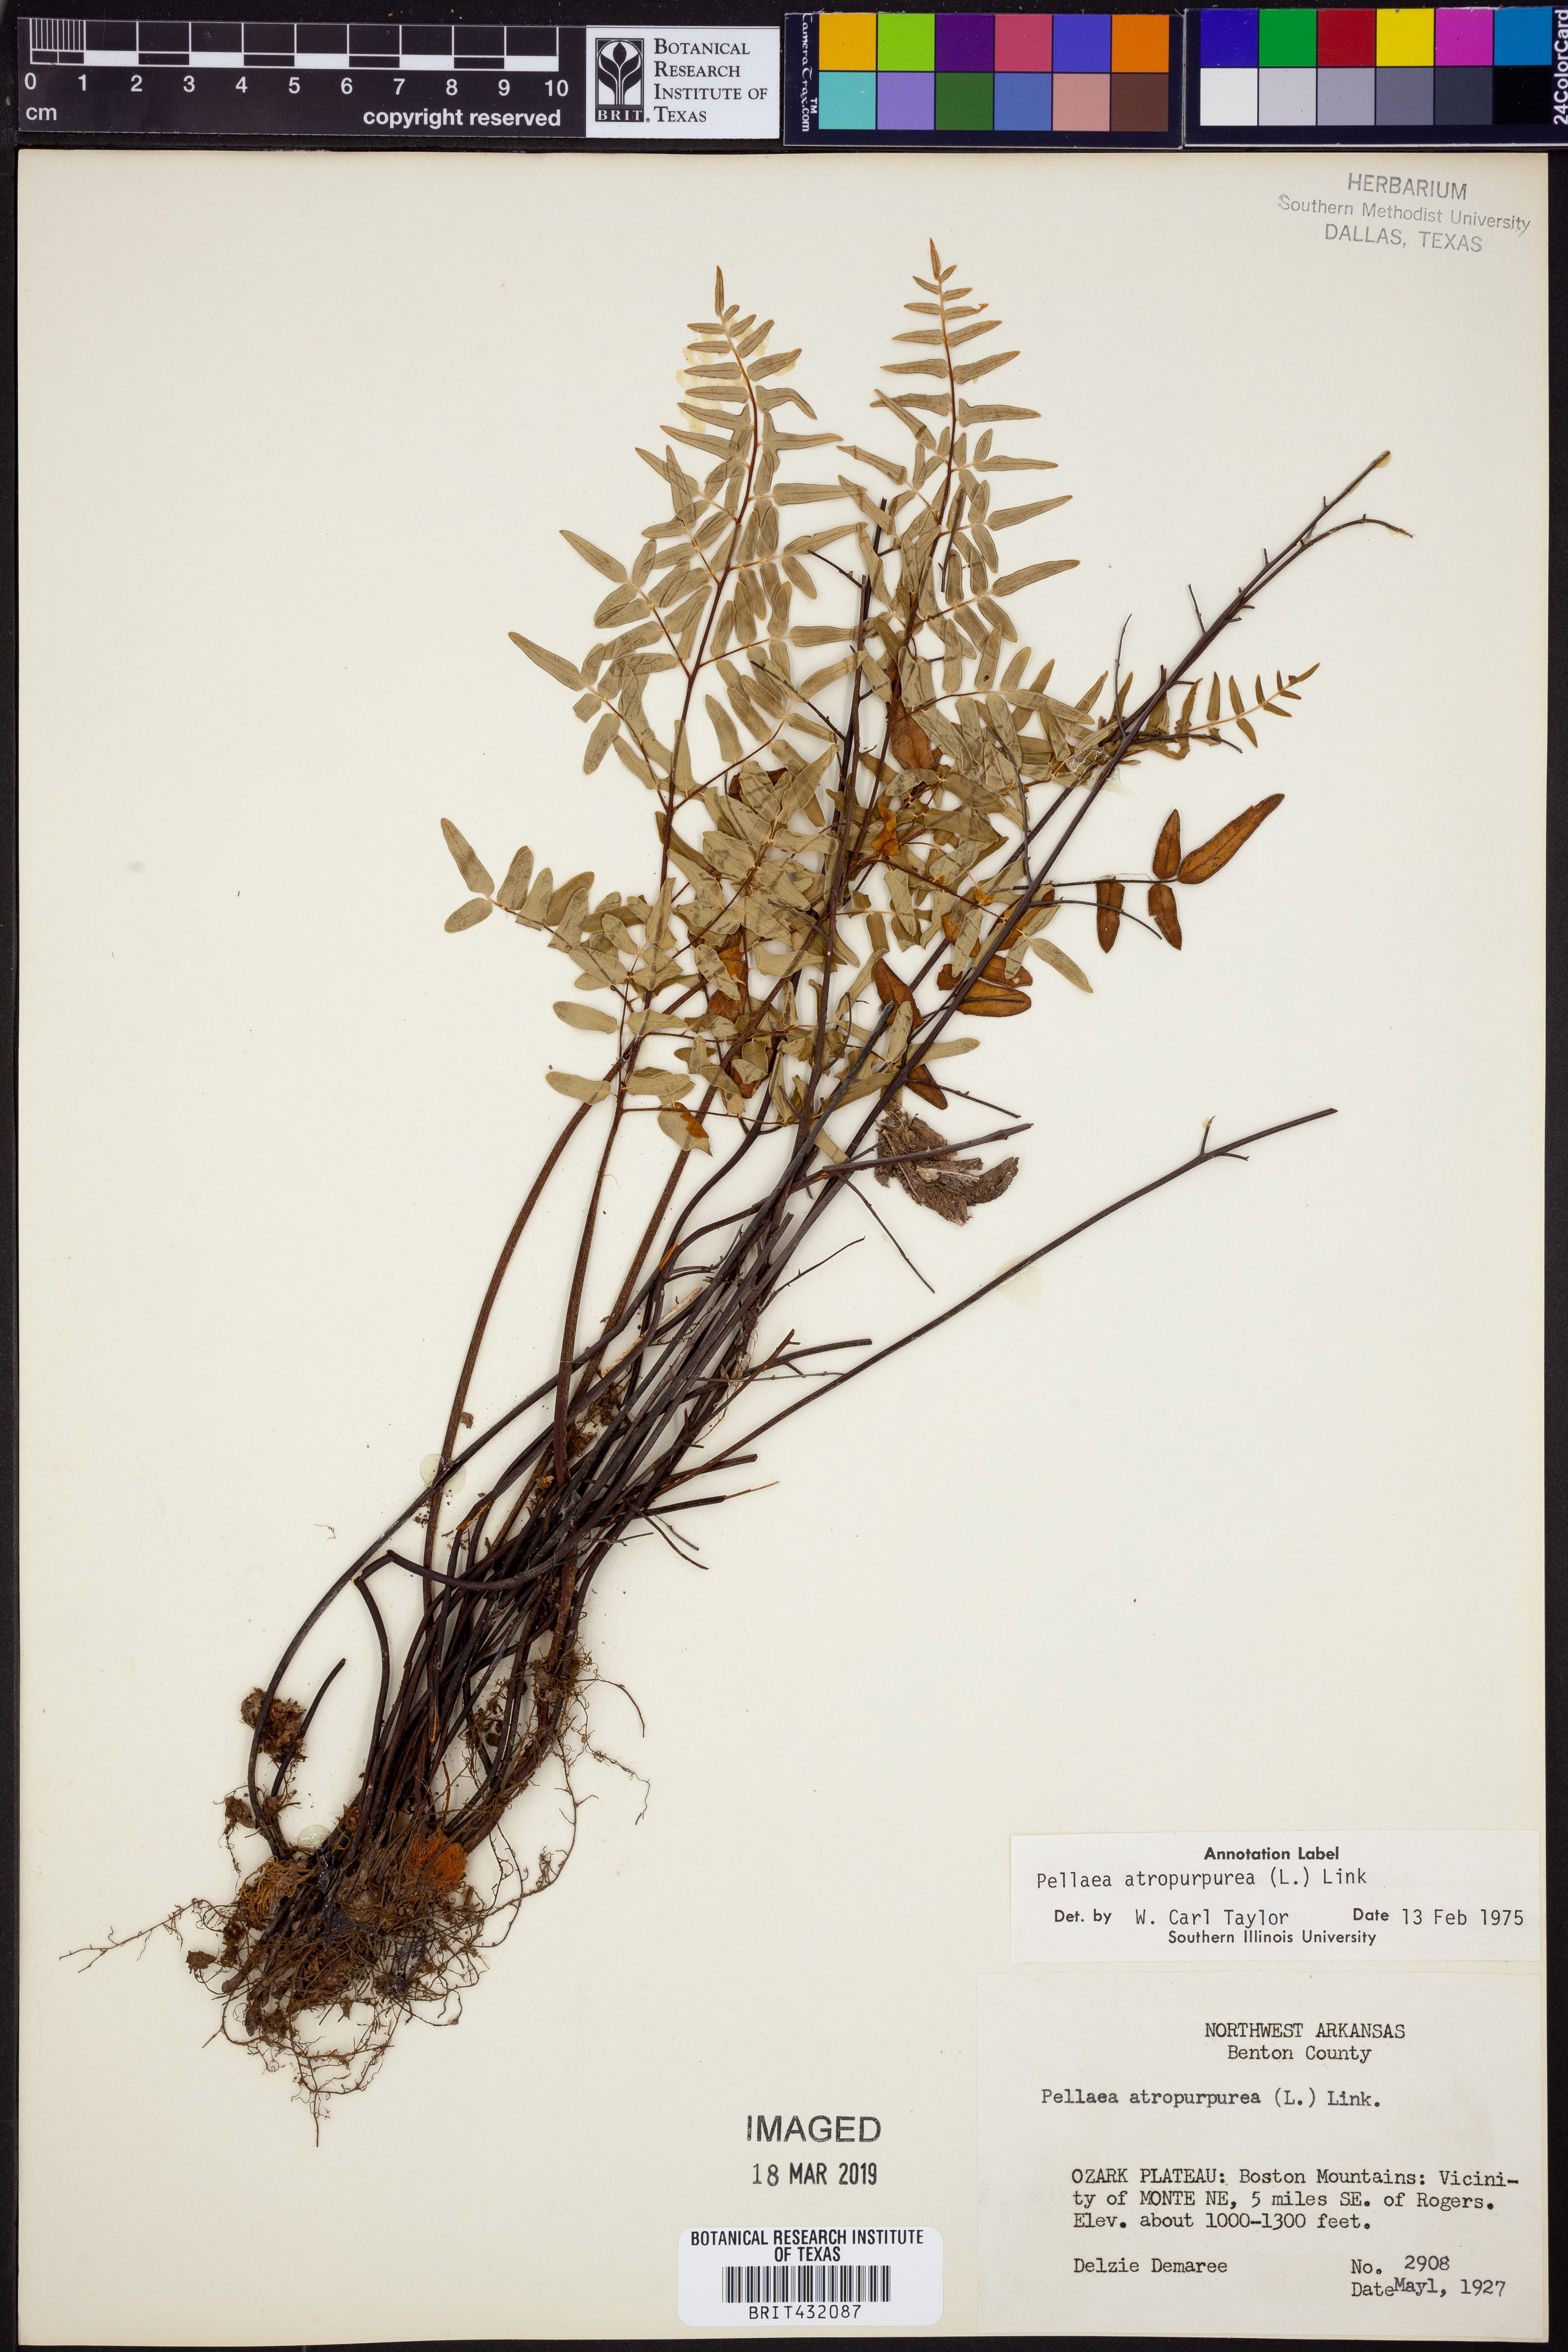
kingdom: Plantae
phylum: Tracheophyta
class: Polypodiopsida
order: Polypodiales
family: Pteridaceae
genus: Pellaea
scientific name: Pellaea atropurpurea
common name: Hairy cliffbrake
